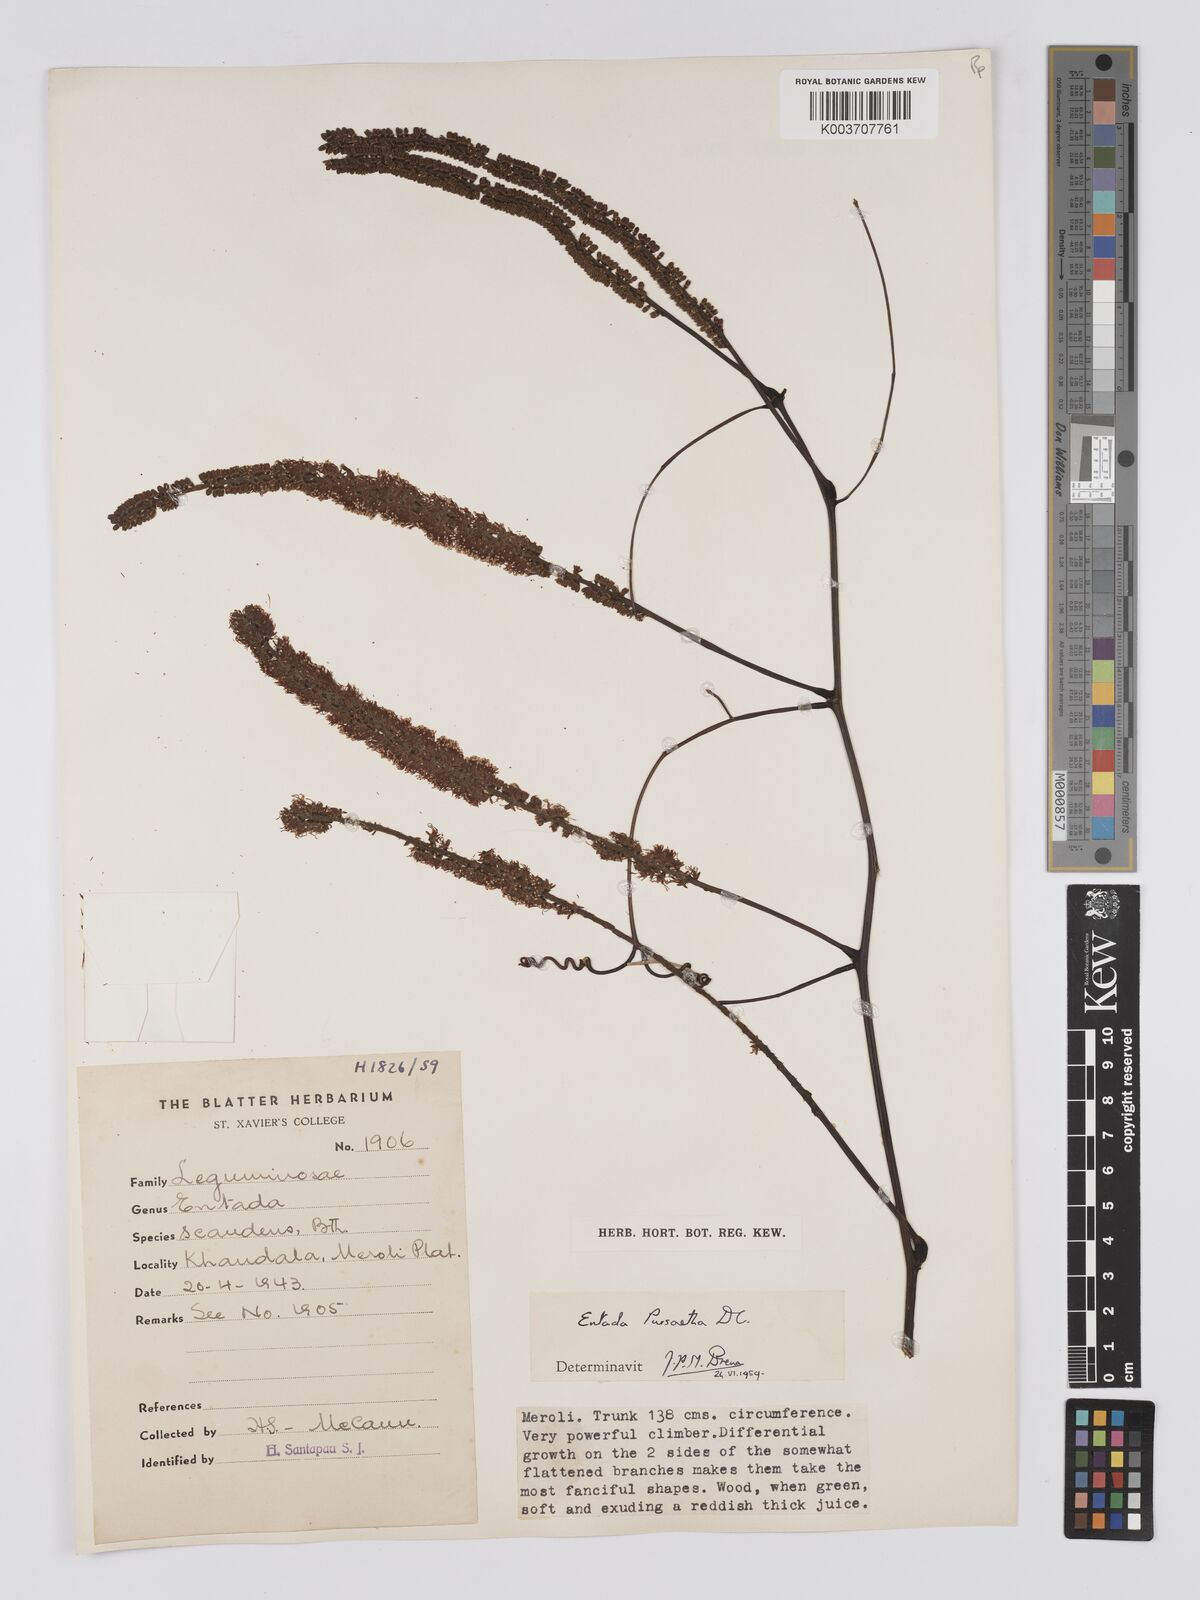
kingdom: Plantae
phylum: Tracheophyta
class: Magnoliopsida
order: Fabales
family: Fabaceae
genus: Entada
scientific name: Entada rheedei
